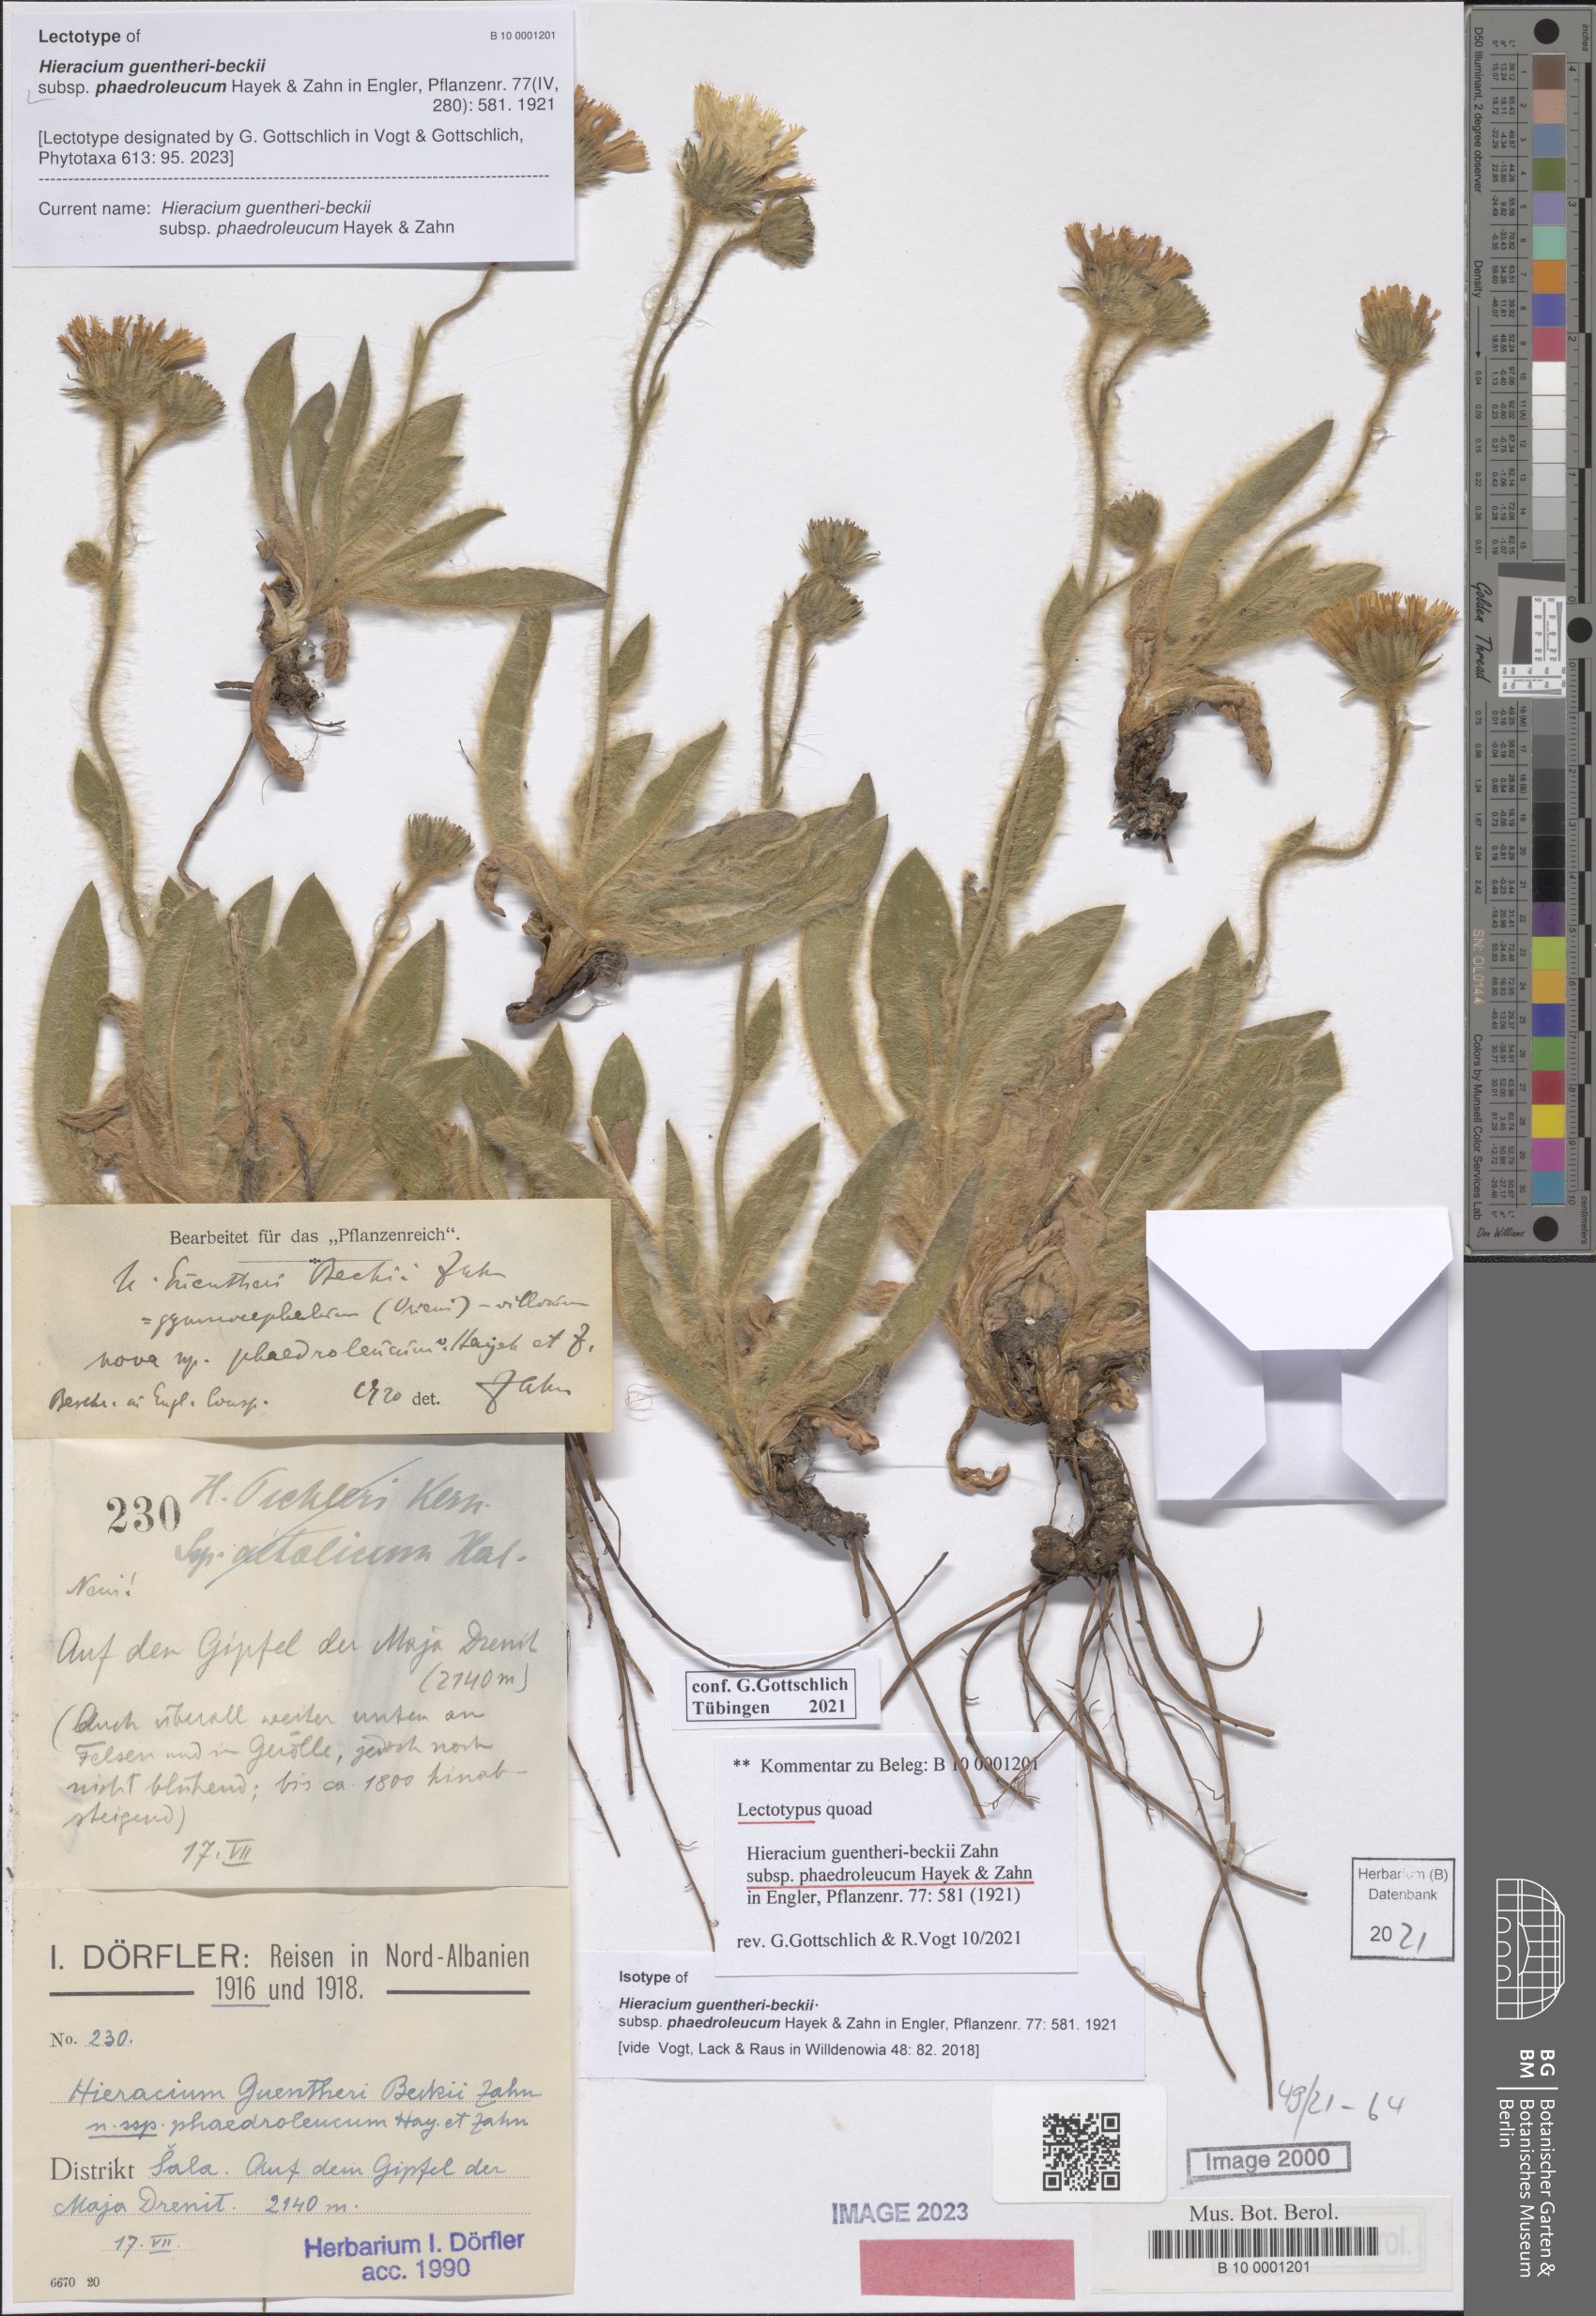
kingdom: Plantae
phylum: Tracheophyta
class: Magnoliopsida
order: Asterales
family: Asteraceae
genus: Hieracium
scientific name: Hieracium guentheri-beckii
